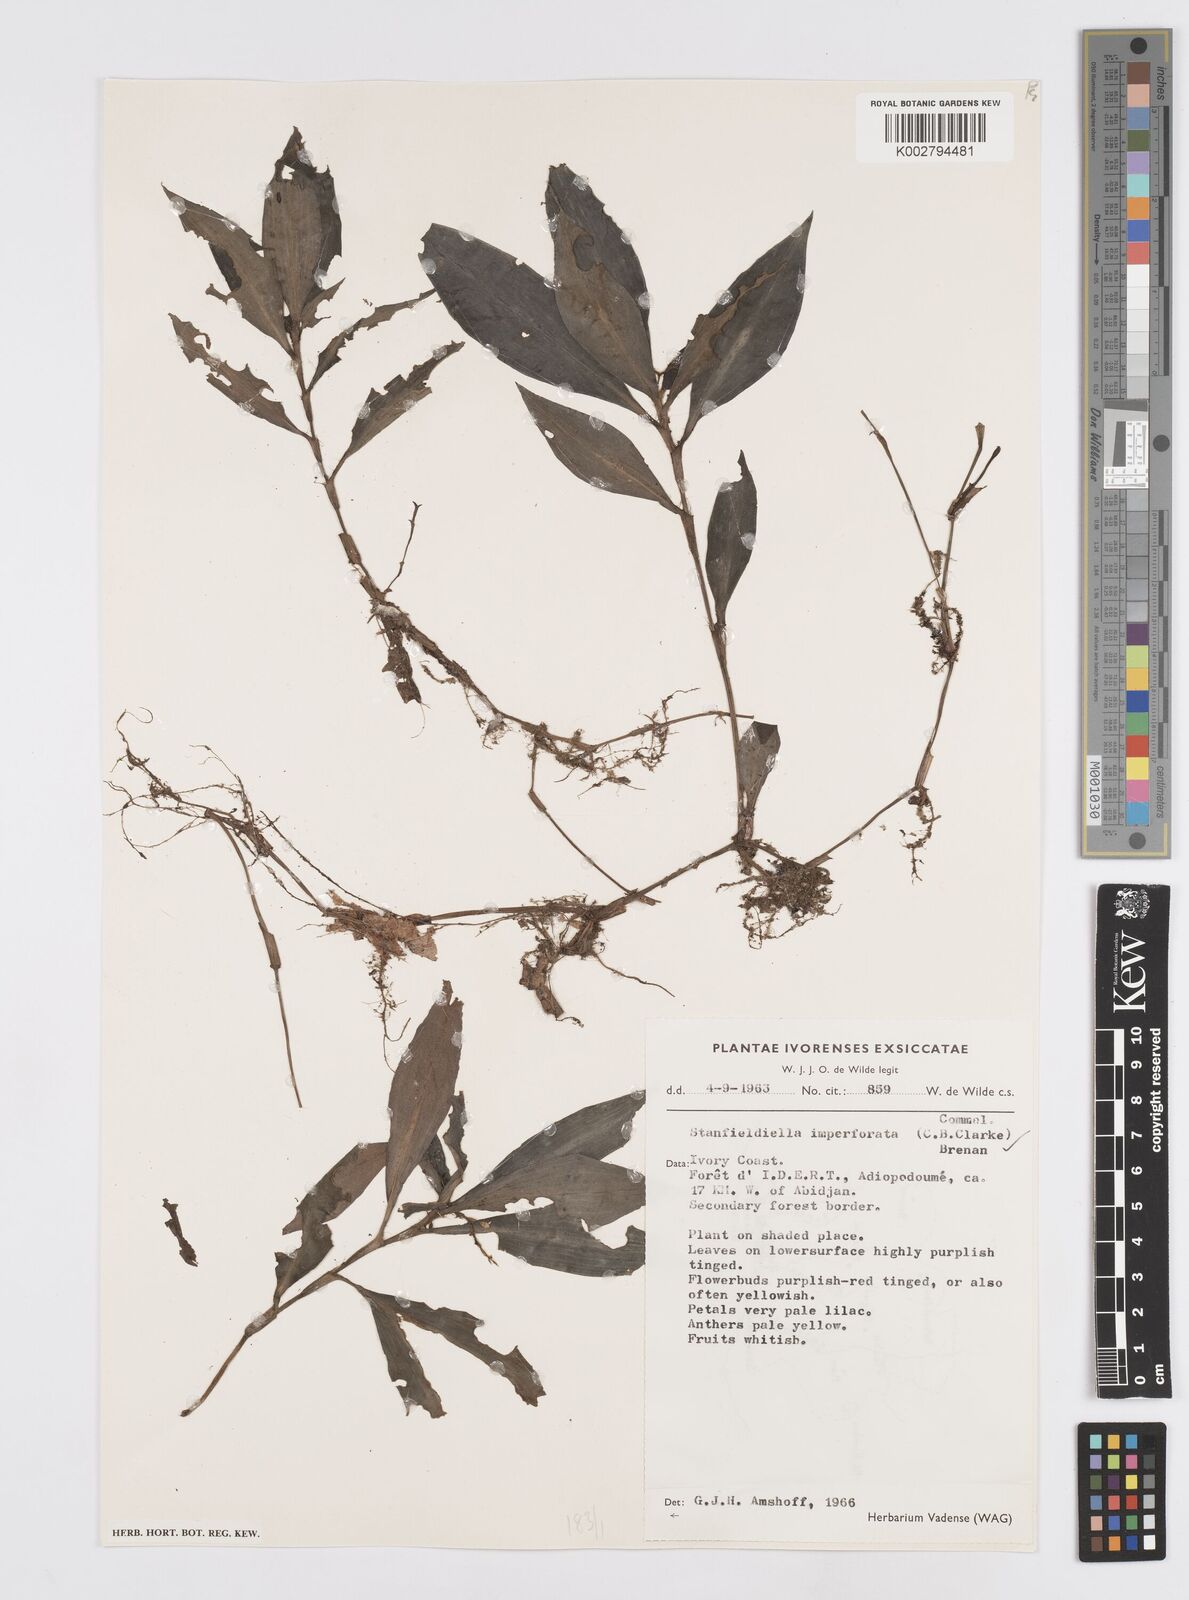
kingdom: Plantae
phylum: Tracheophyta
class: Liliopsida
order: Commelinales
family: Commelinaceae
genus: Stanfieldiella
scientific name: Stanfieldiella imperforata
